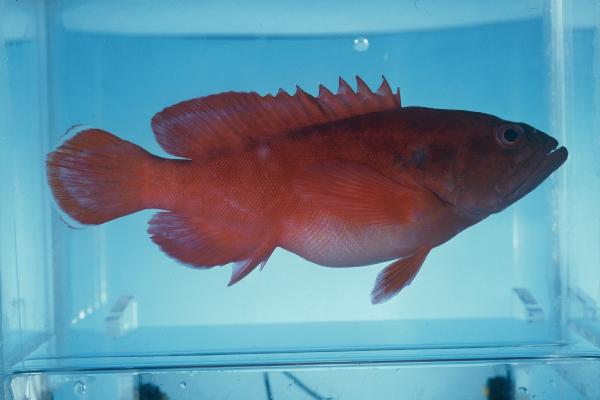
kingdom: Animalia
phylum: Chordata
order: Perciformes
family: Serranidae
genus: Cephalopholis
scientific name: Cephalopholis
